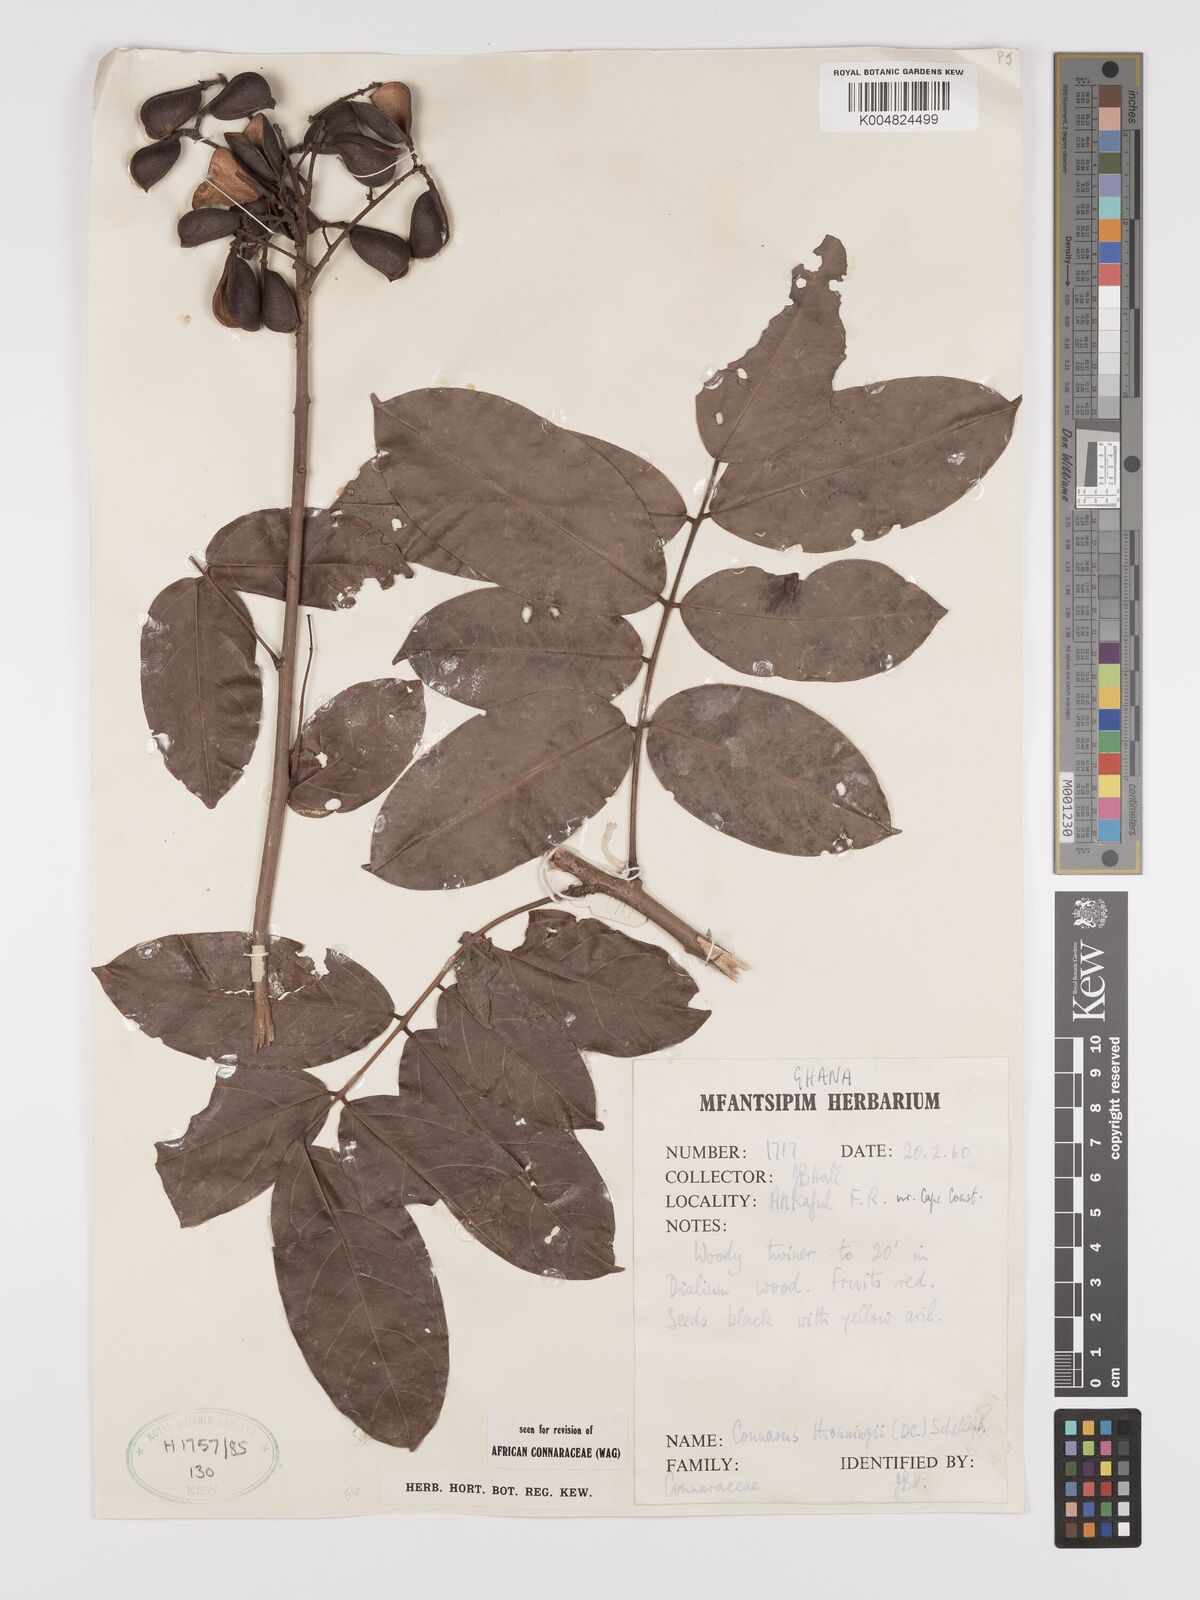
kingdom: Plantae
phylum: Tracheophyta
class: Magnoliopsida
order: Oxalidales
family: Connaraceae
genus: Connarus
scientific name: Connarus thonningii
